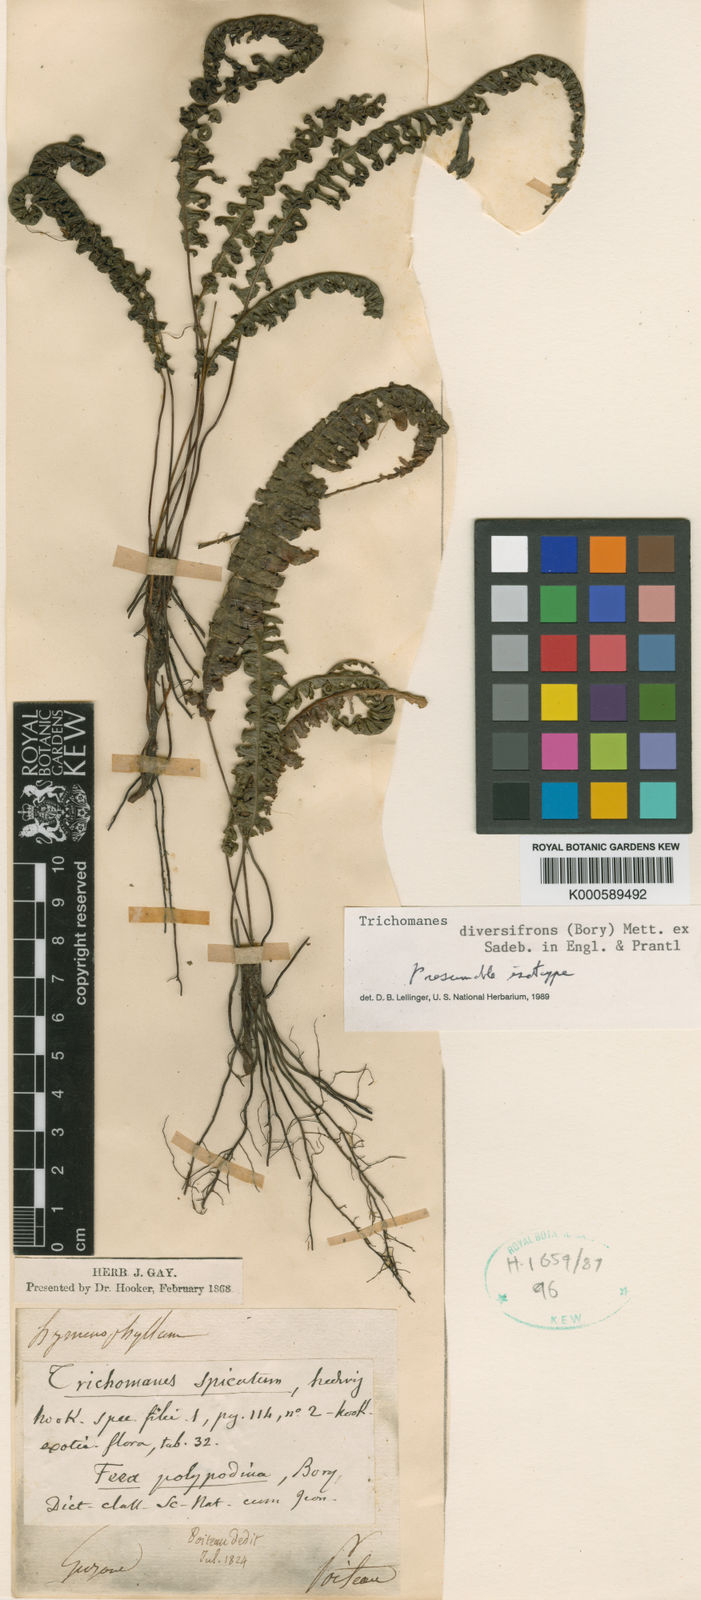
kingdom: Plantae
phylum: Tracheophyta
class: Polypodiopsida
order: Hymenophyllales
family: Hymenophyllaceae
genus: Trichomanes
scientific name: Trichomanes
